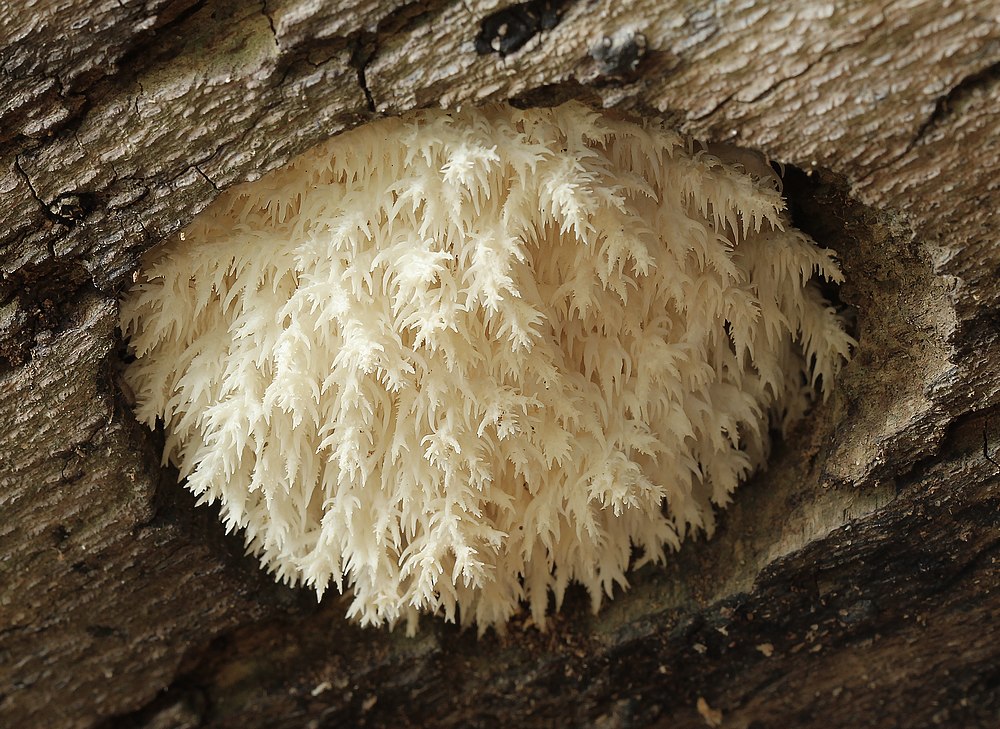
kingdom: Fungi
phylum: Basidiomycota
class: Agaricomycetes
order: Russulales
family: Hericiaceae
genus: Hericium
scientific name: Hericium coralloides
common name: koralpigsvamp
